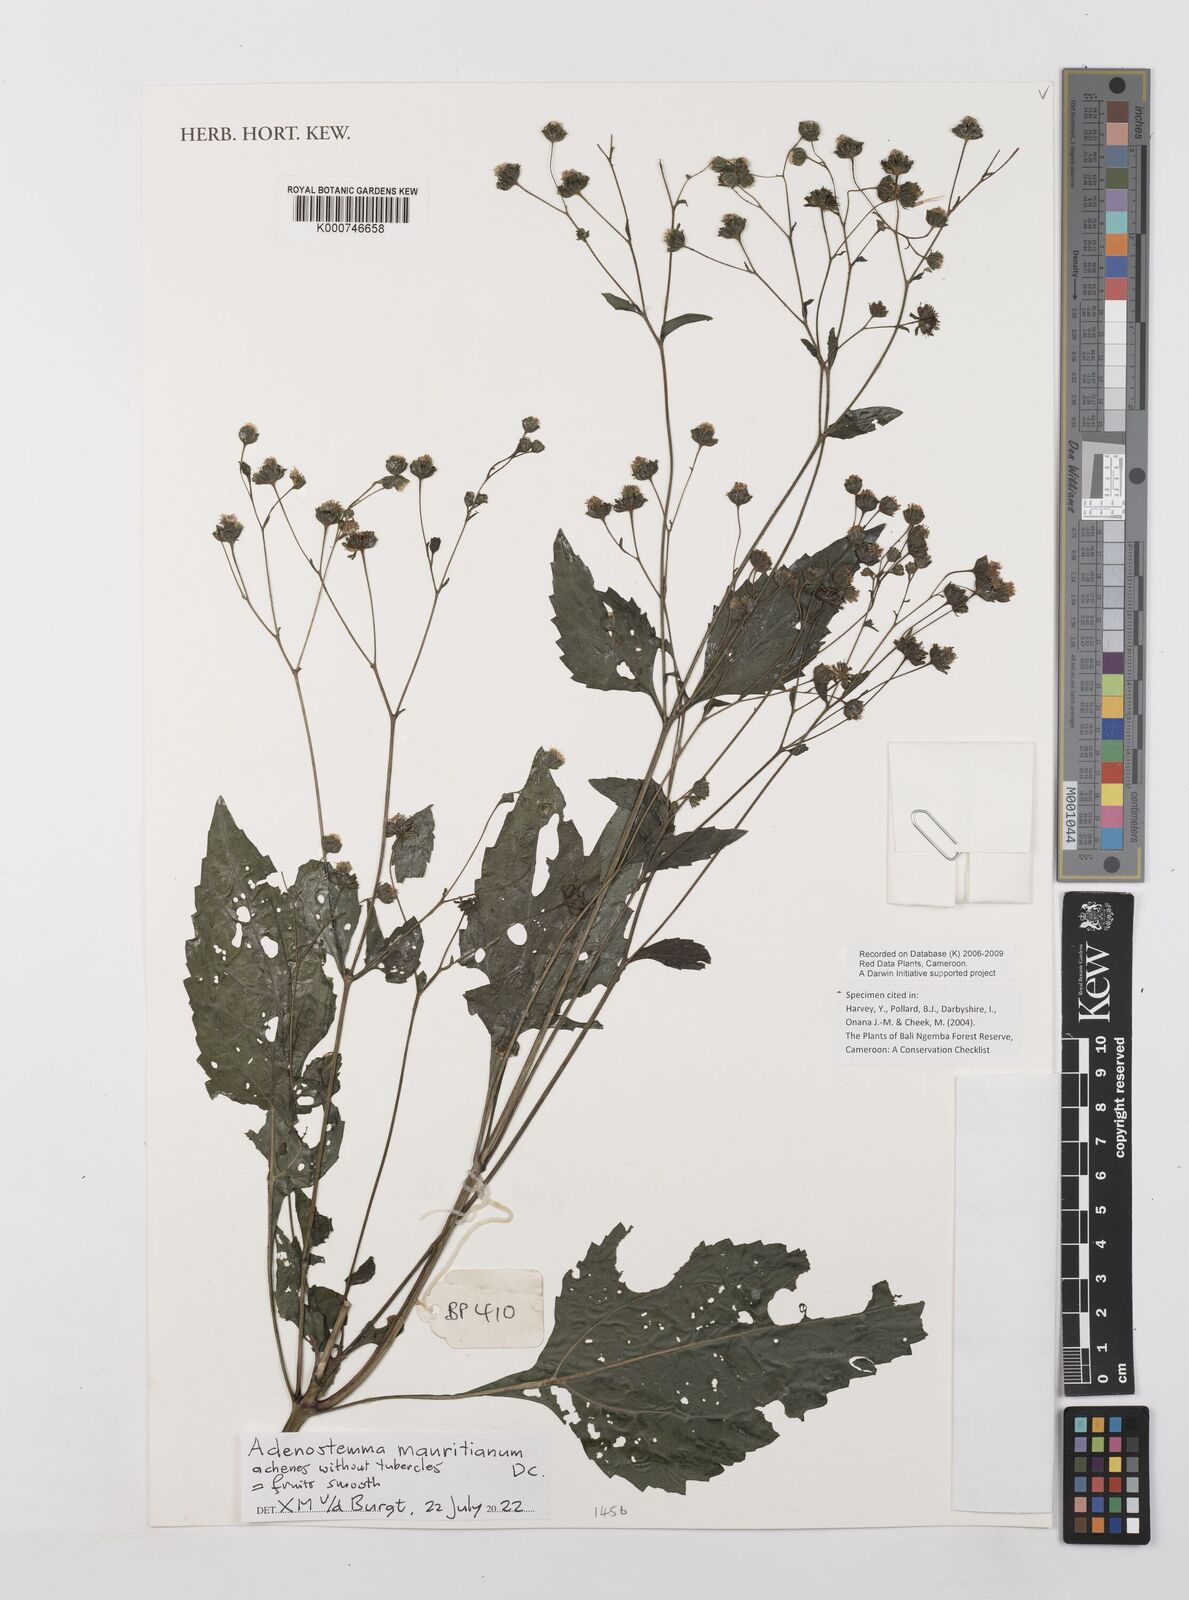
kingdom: Plantae
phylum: Tracheophyta
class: Magnoliopsida
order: Asterales
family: Asteraceae
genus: Adenostemma
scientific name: Adenostemma caffrum
